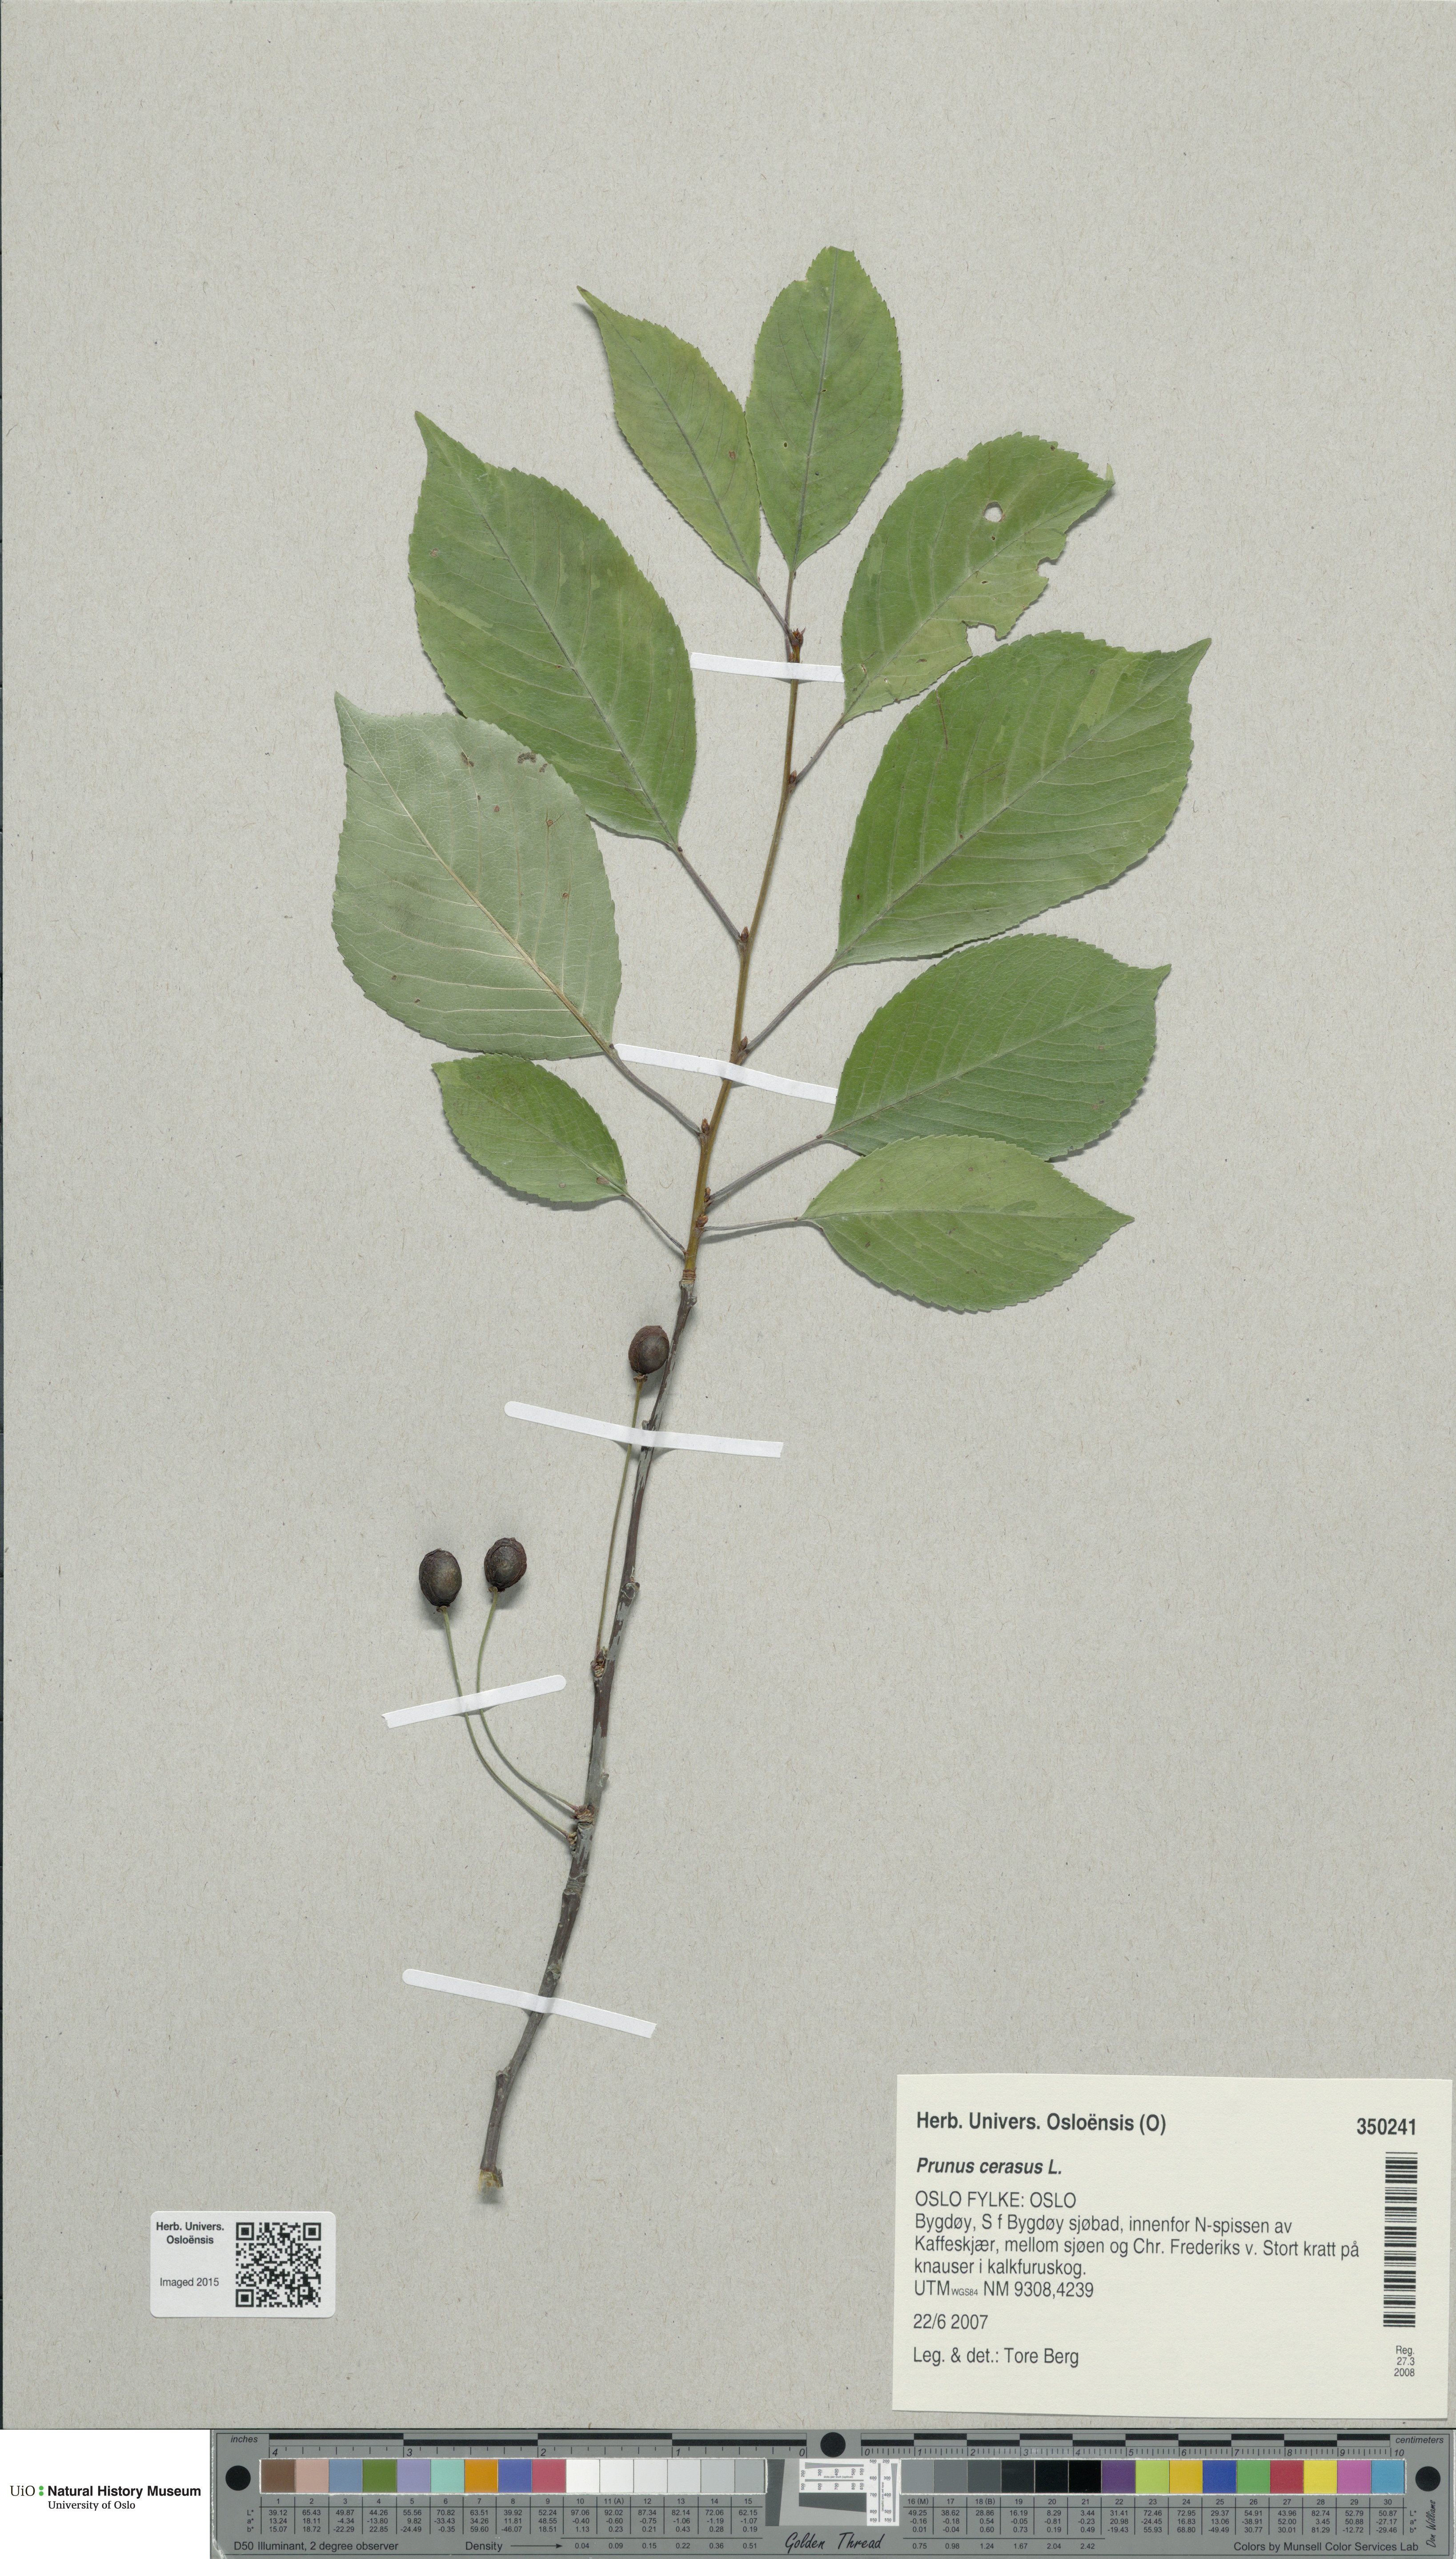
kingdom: Plantae
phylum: Tracheophyta
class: Magnoliopsida
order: Rosales
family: Rosaceae
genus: Prunus
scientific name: Prunus cerasus
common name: Morello cherry
